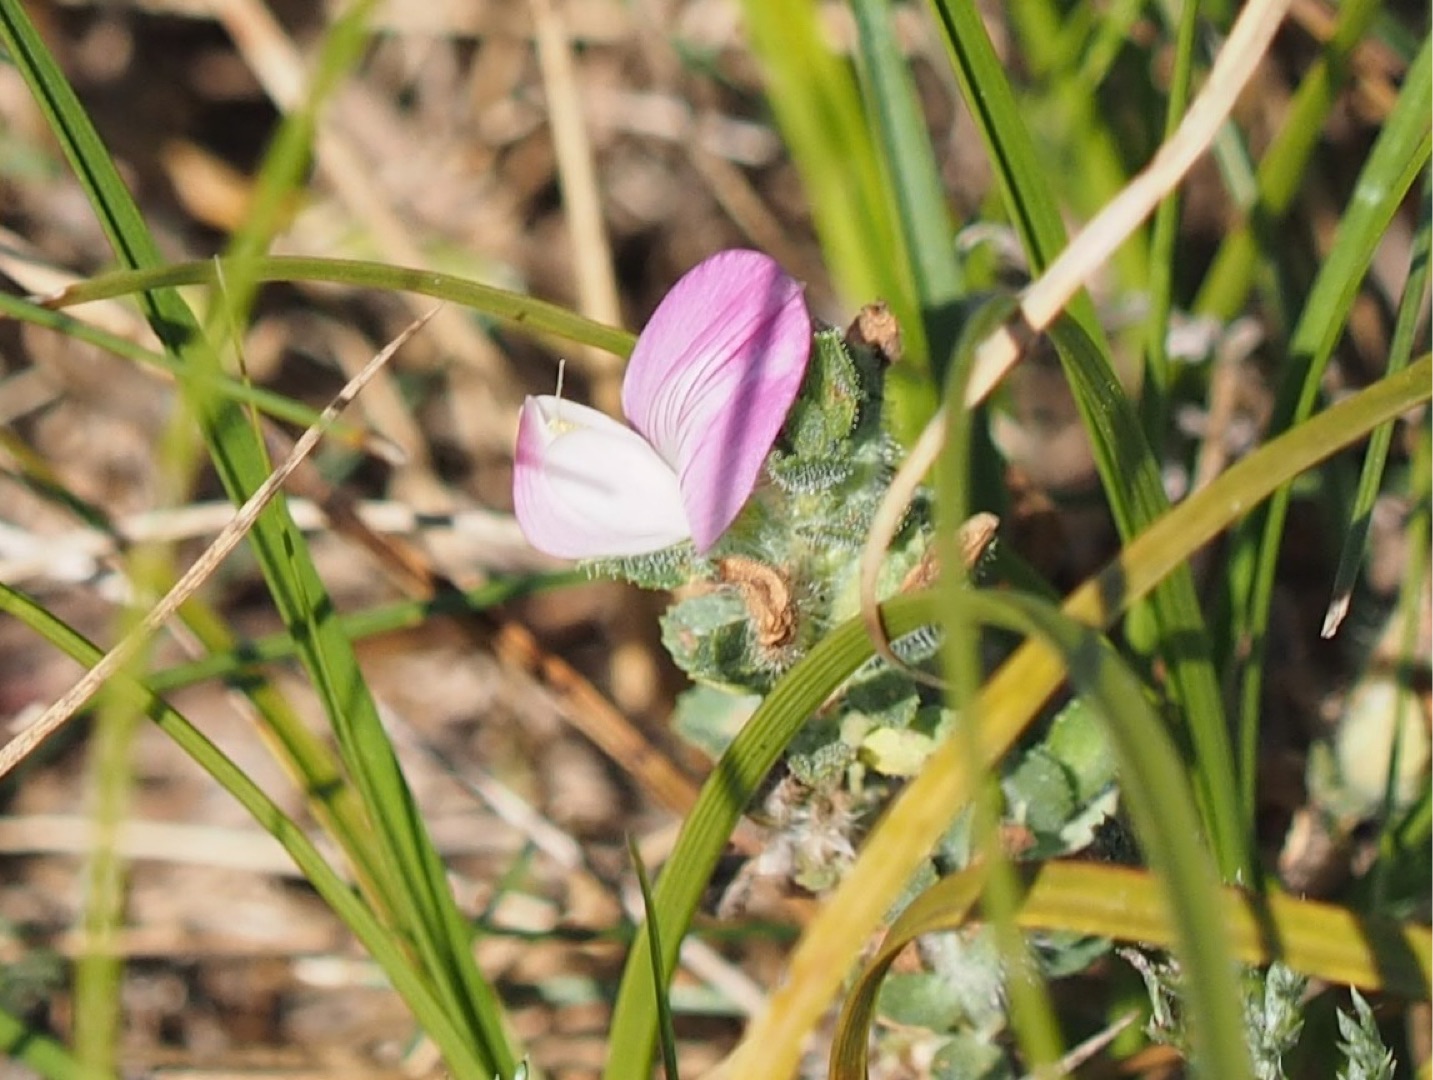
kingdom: Plantae
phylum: Tracheophyta
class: Magnoliopsida
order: Fabales
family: Fabaceae
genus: Ononis
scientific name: Ononis spinosa
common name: Mark-krageklo
